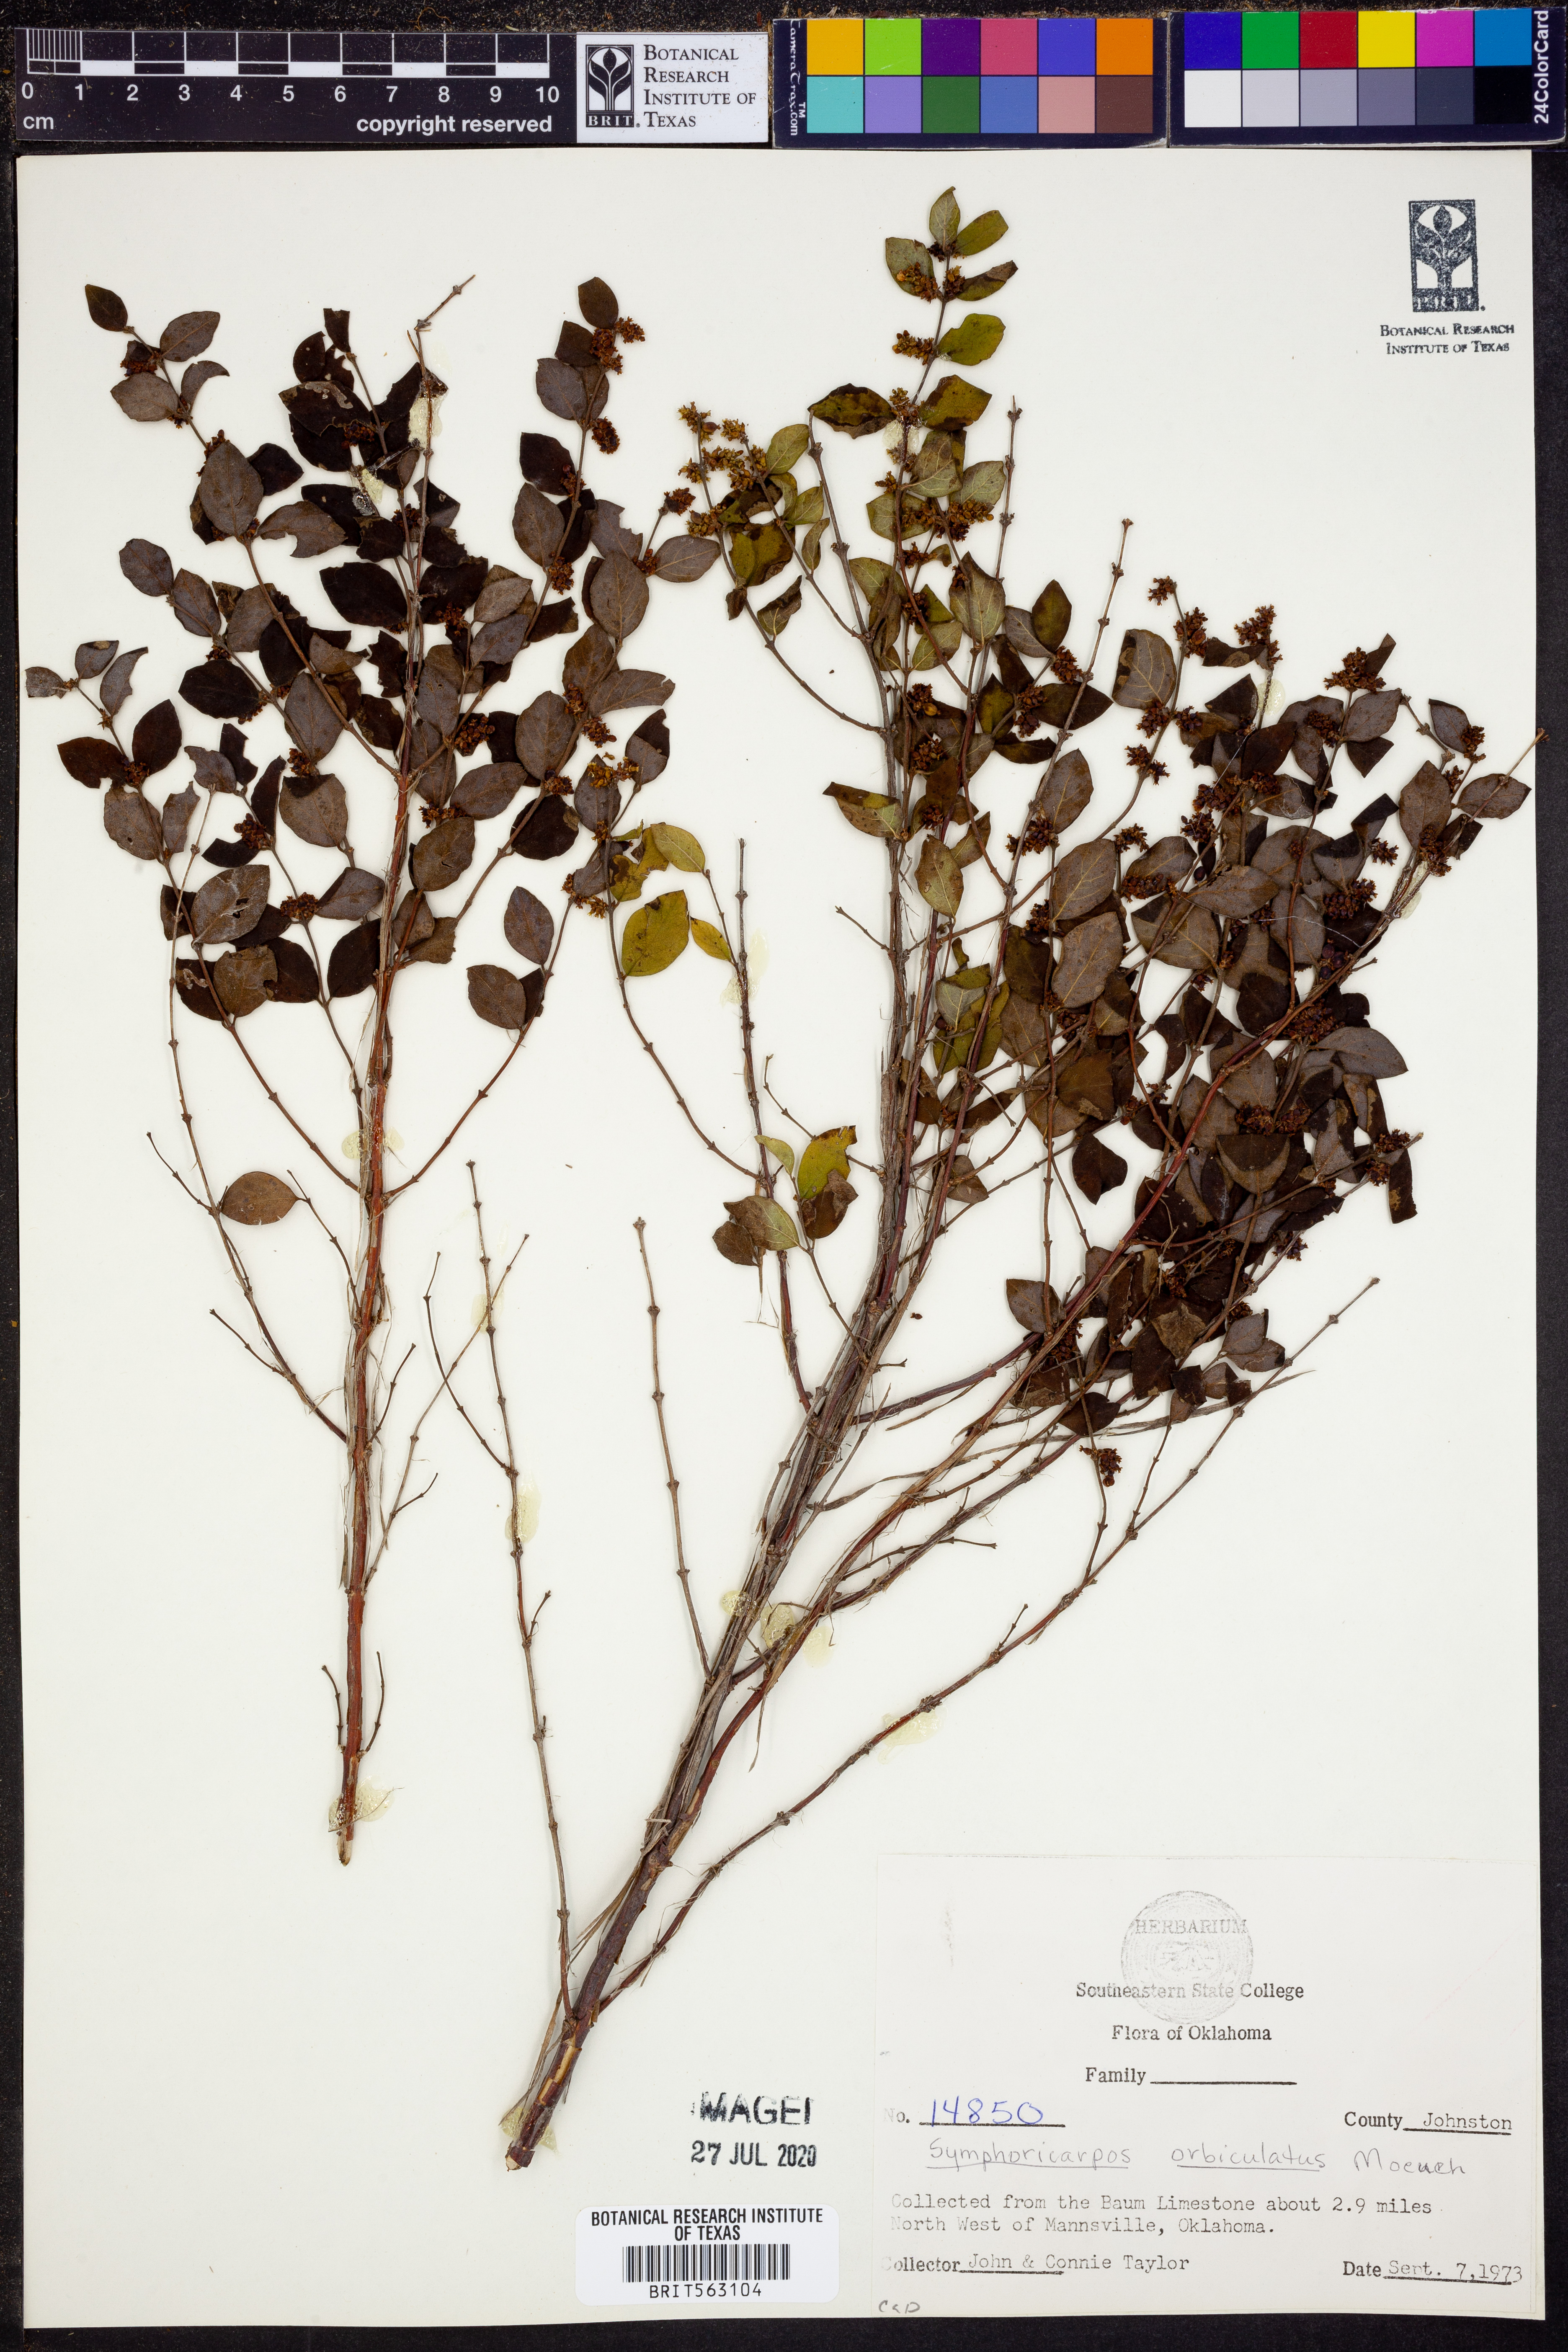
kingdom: Plantae
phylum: Tracheophyta
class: Magnoliopsida
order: Dipsacales
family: Caprifoliaceae
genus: Symphoricarpos
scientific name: Symphoricarpos orbiculatus
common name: Coralberry
